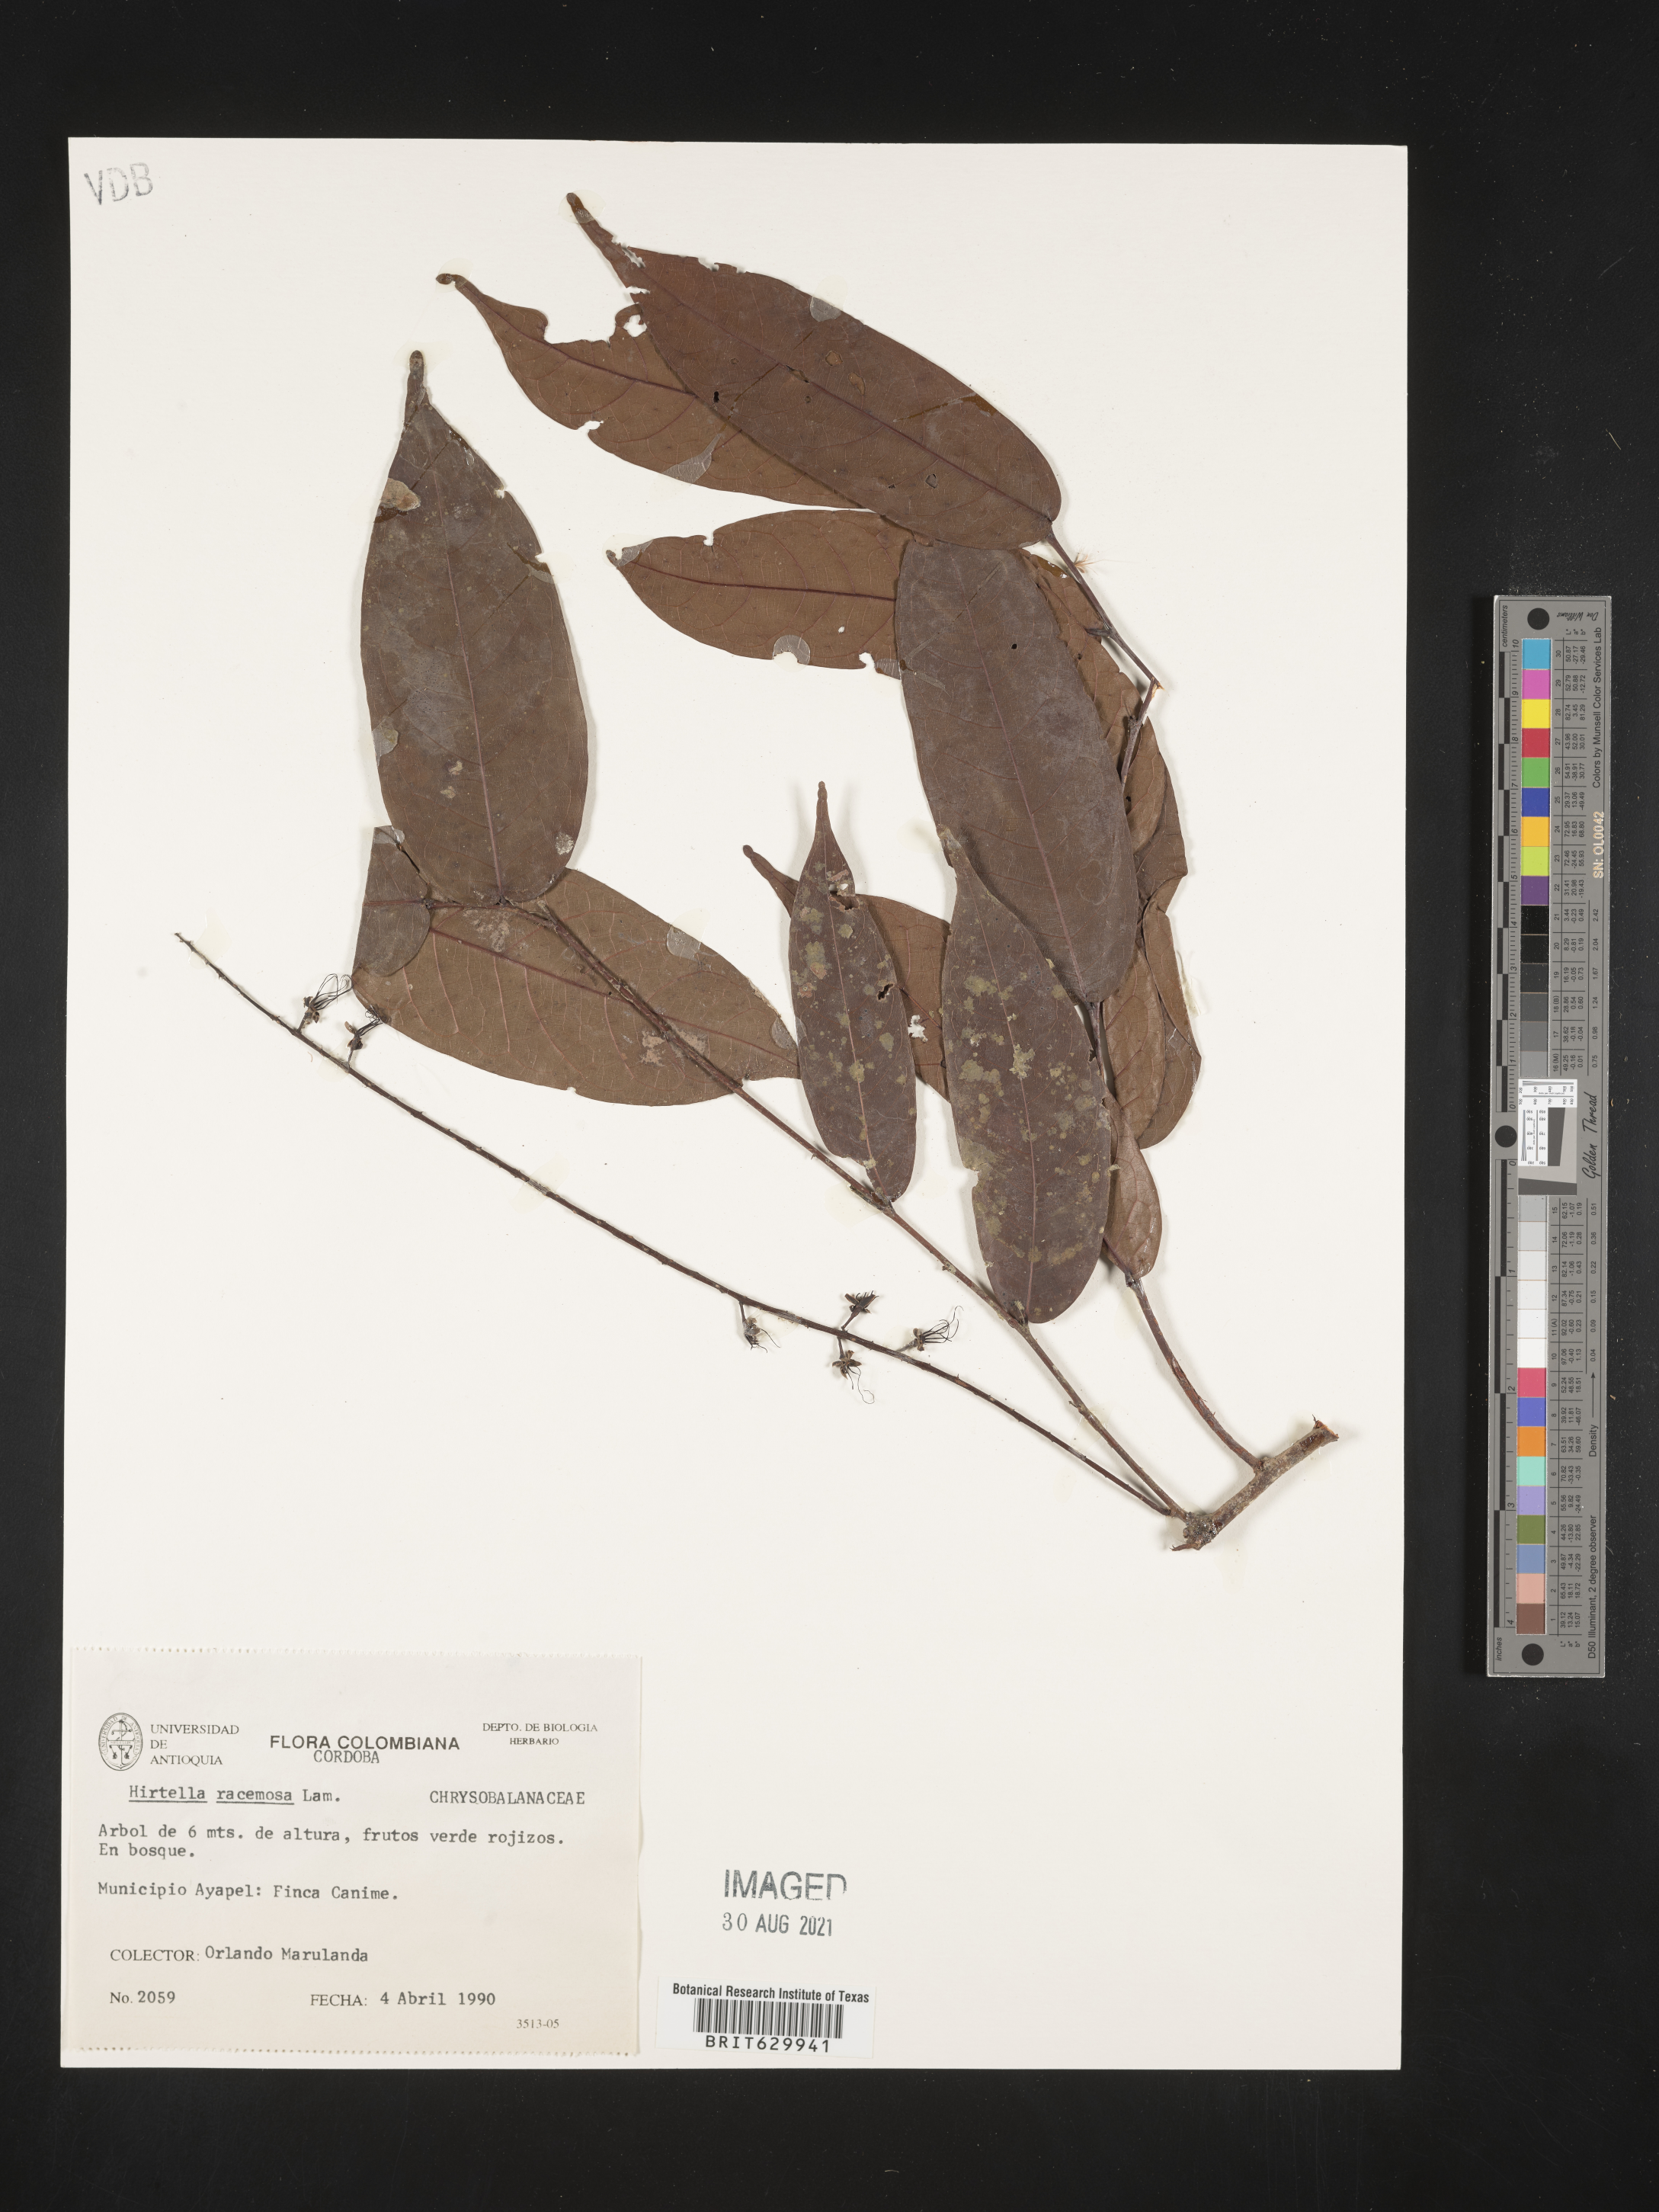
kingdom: Plantae
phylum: Tracheophyta
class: Magnoliopsida
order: Malpighiales
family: Chrysobalanaceae
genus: Hirtella
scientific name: Hirtella triandra
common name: Hairy plum
